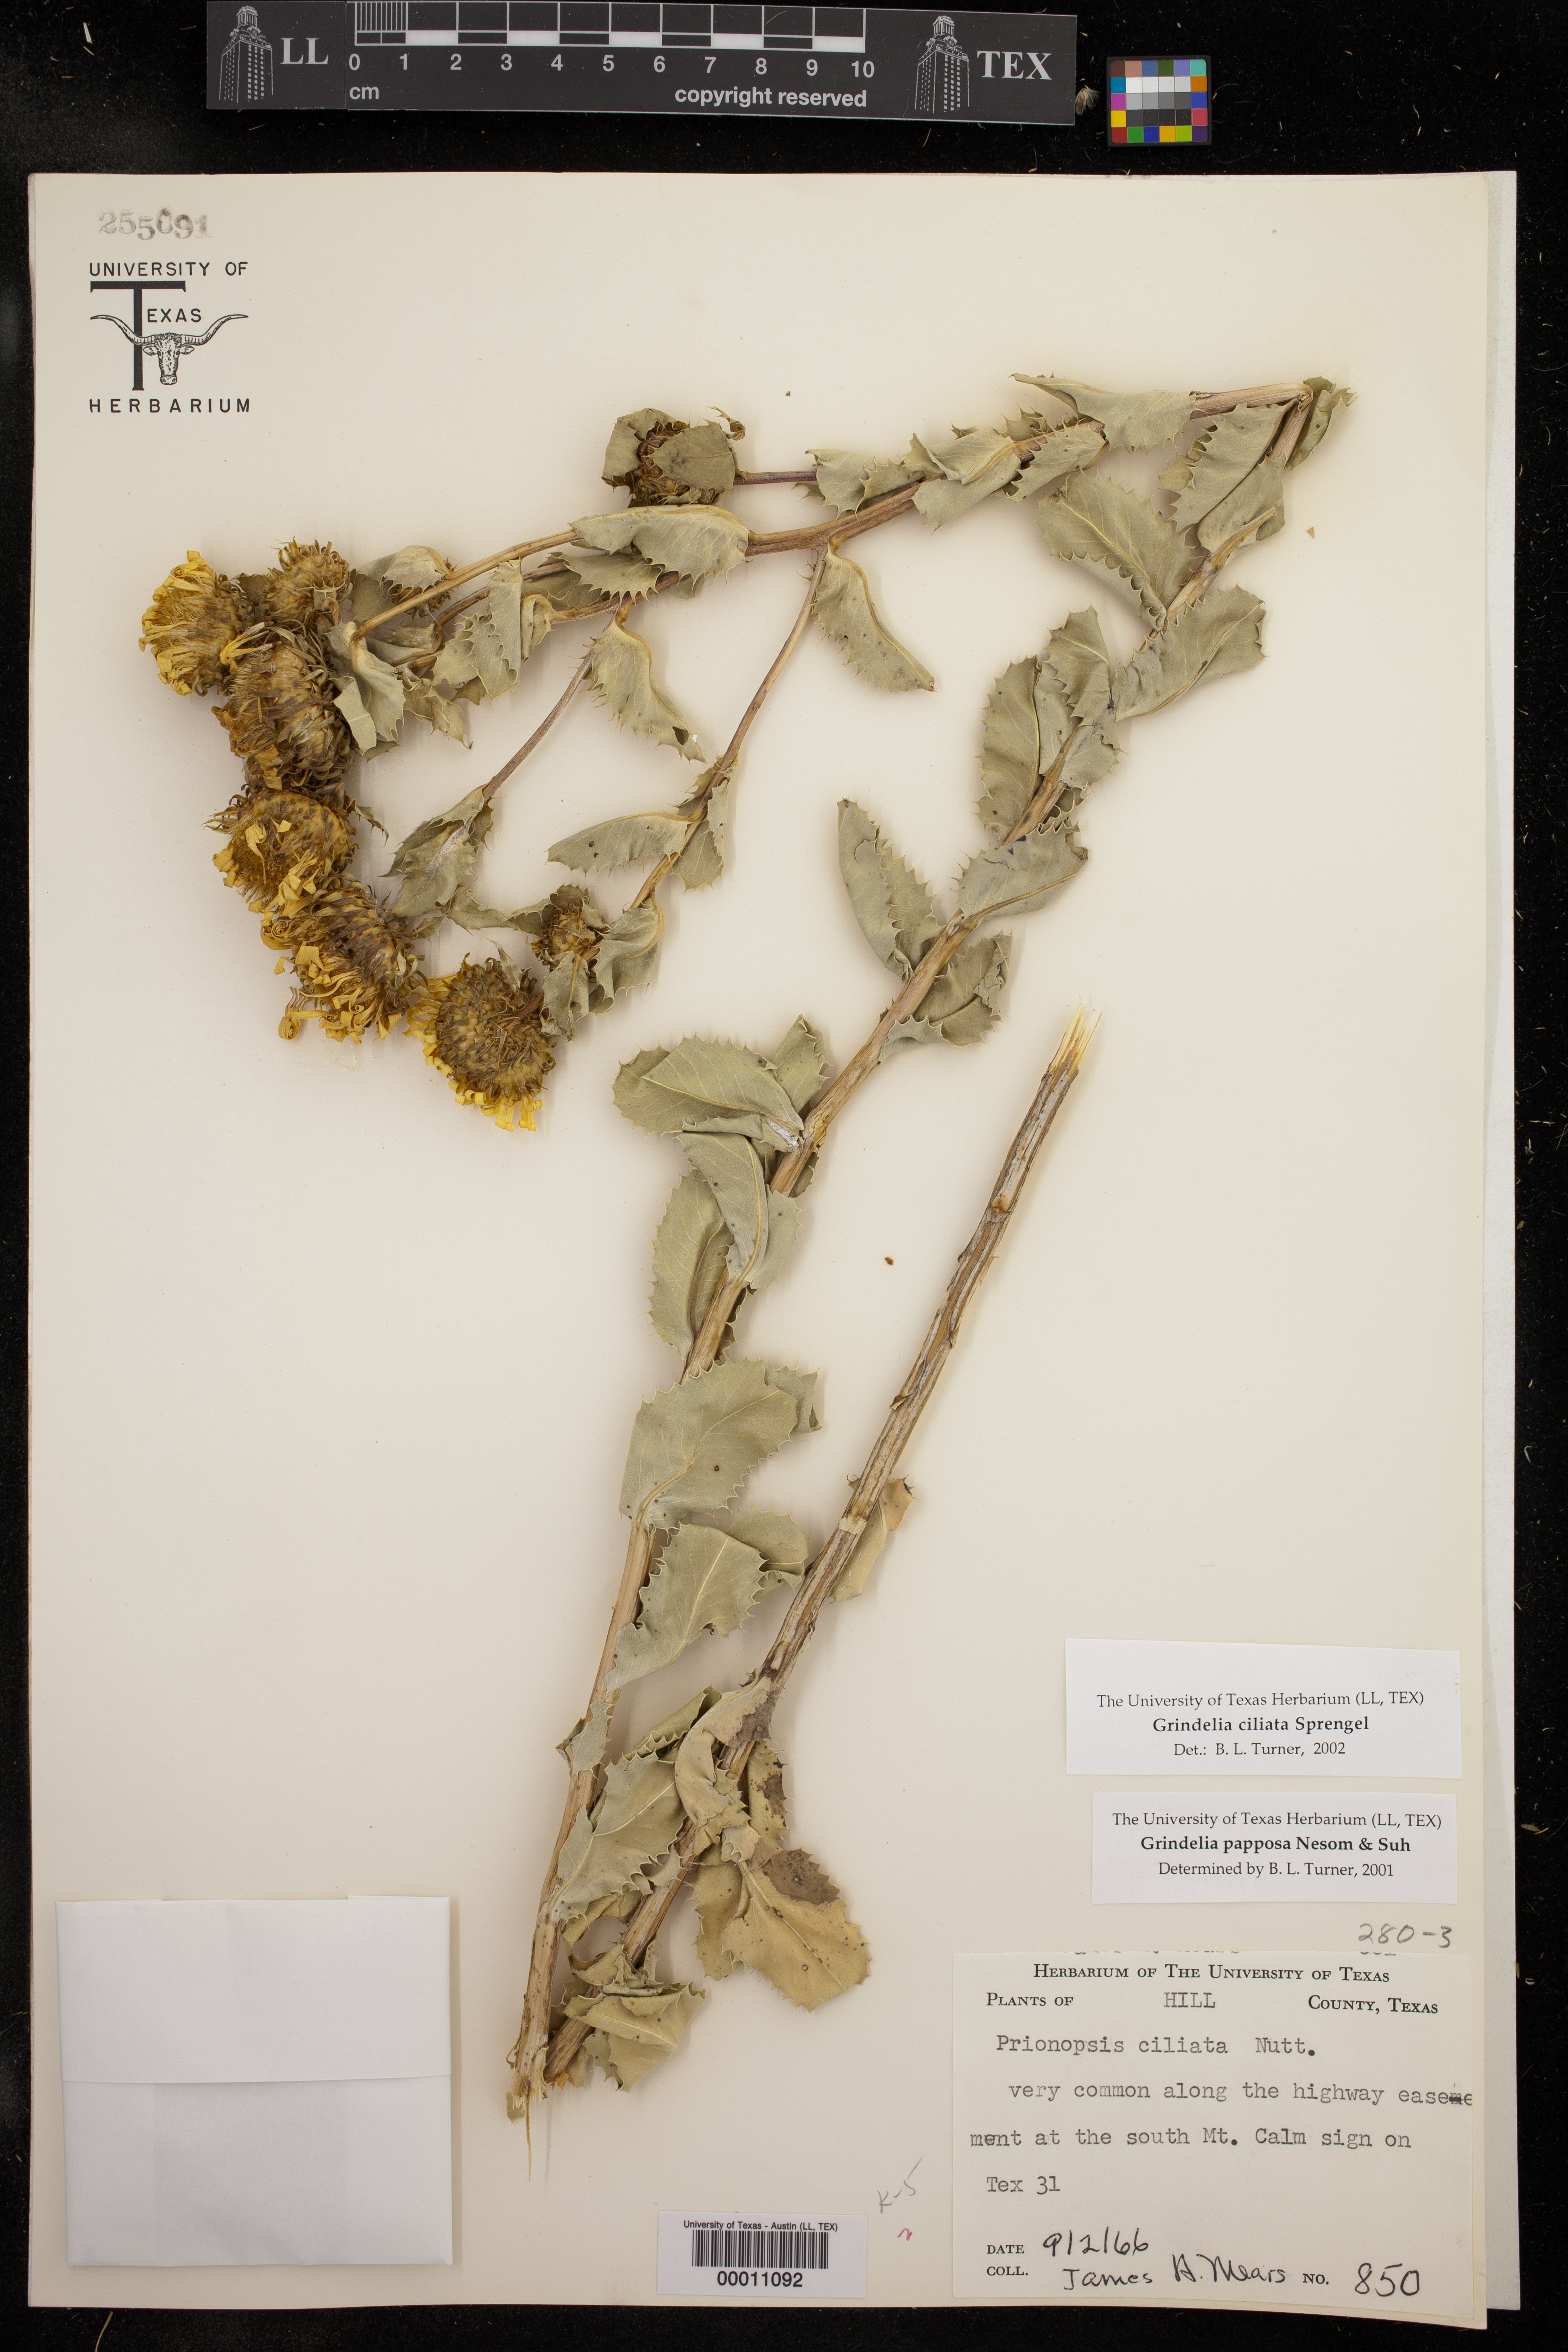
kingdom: Plantae
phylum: Tracheophyta
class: Magnoliopsida
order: Asterales
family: Asteraceae
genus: Grindelia
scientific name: Grindelia ciliata
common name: Goldenweed
